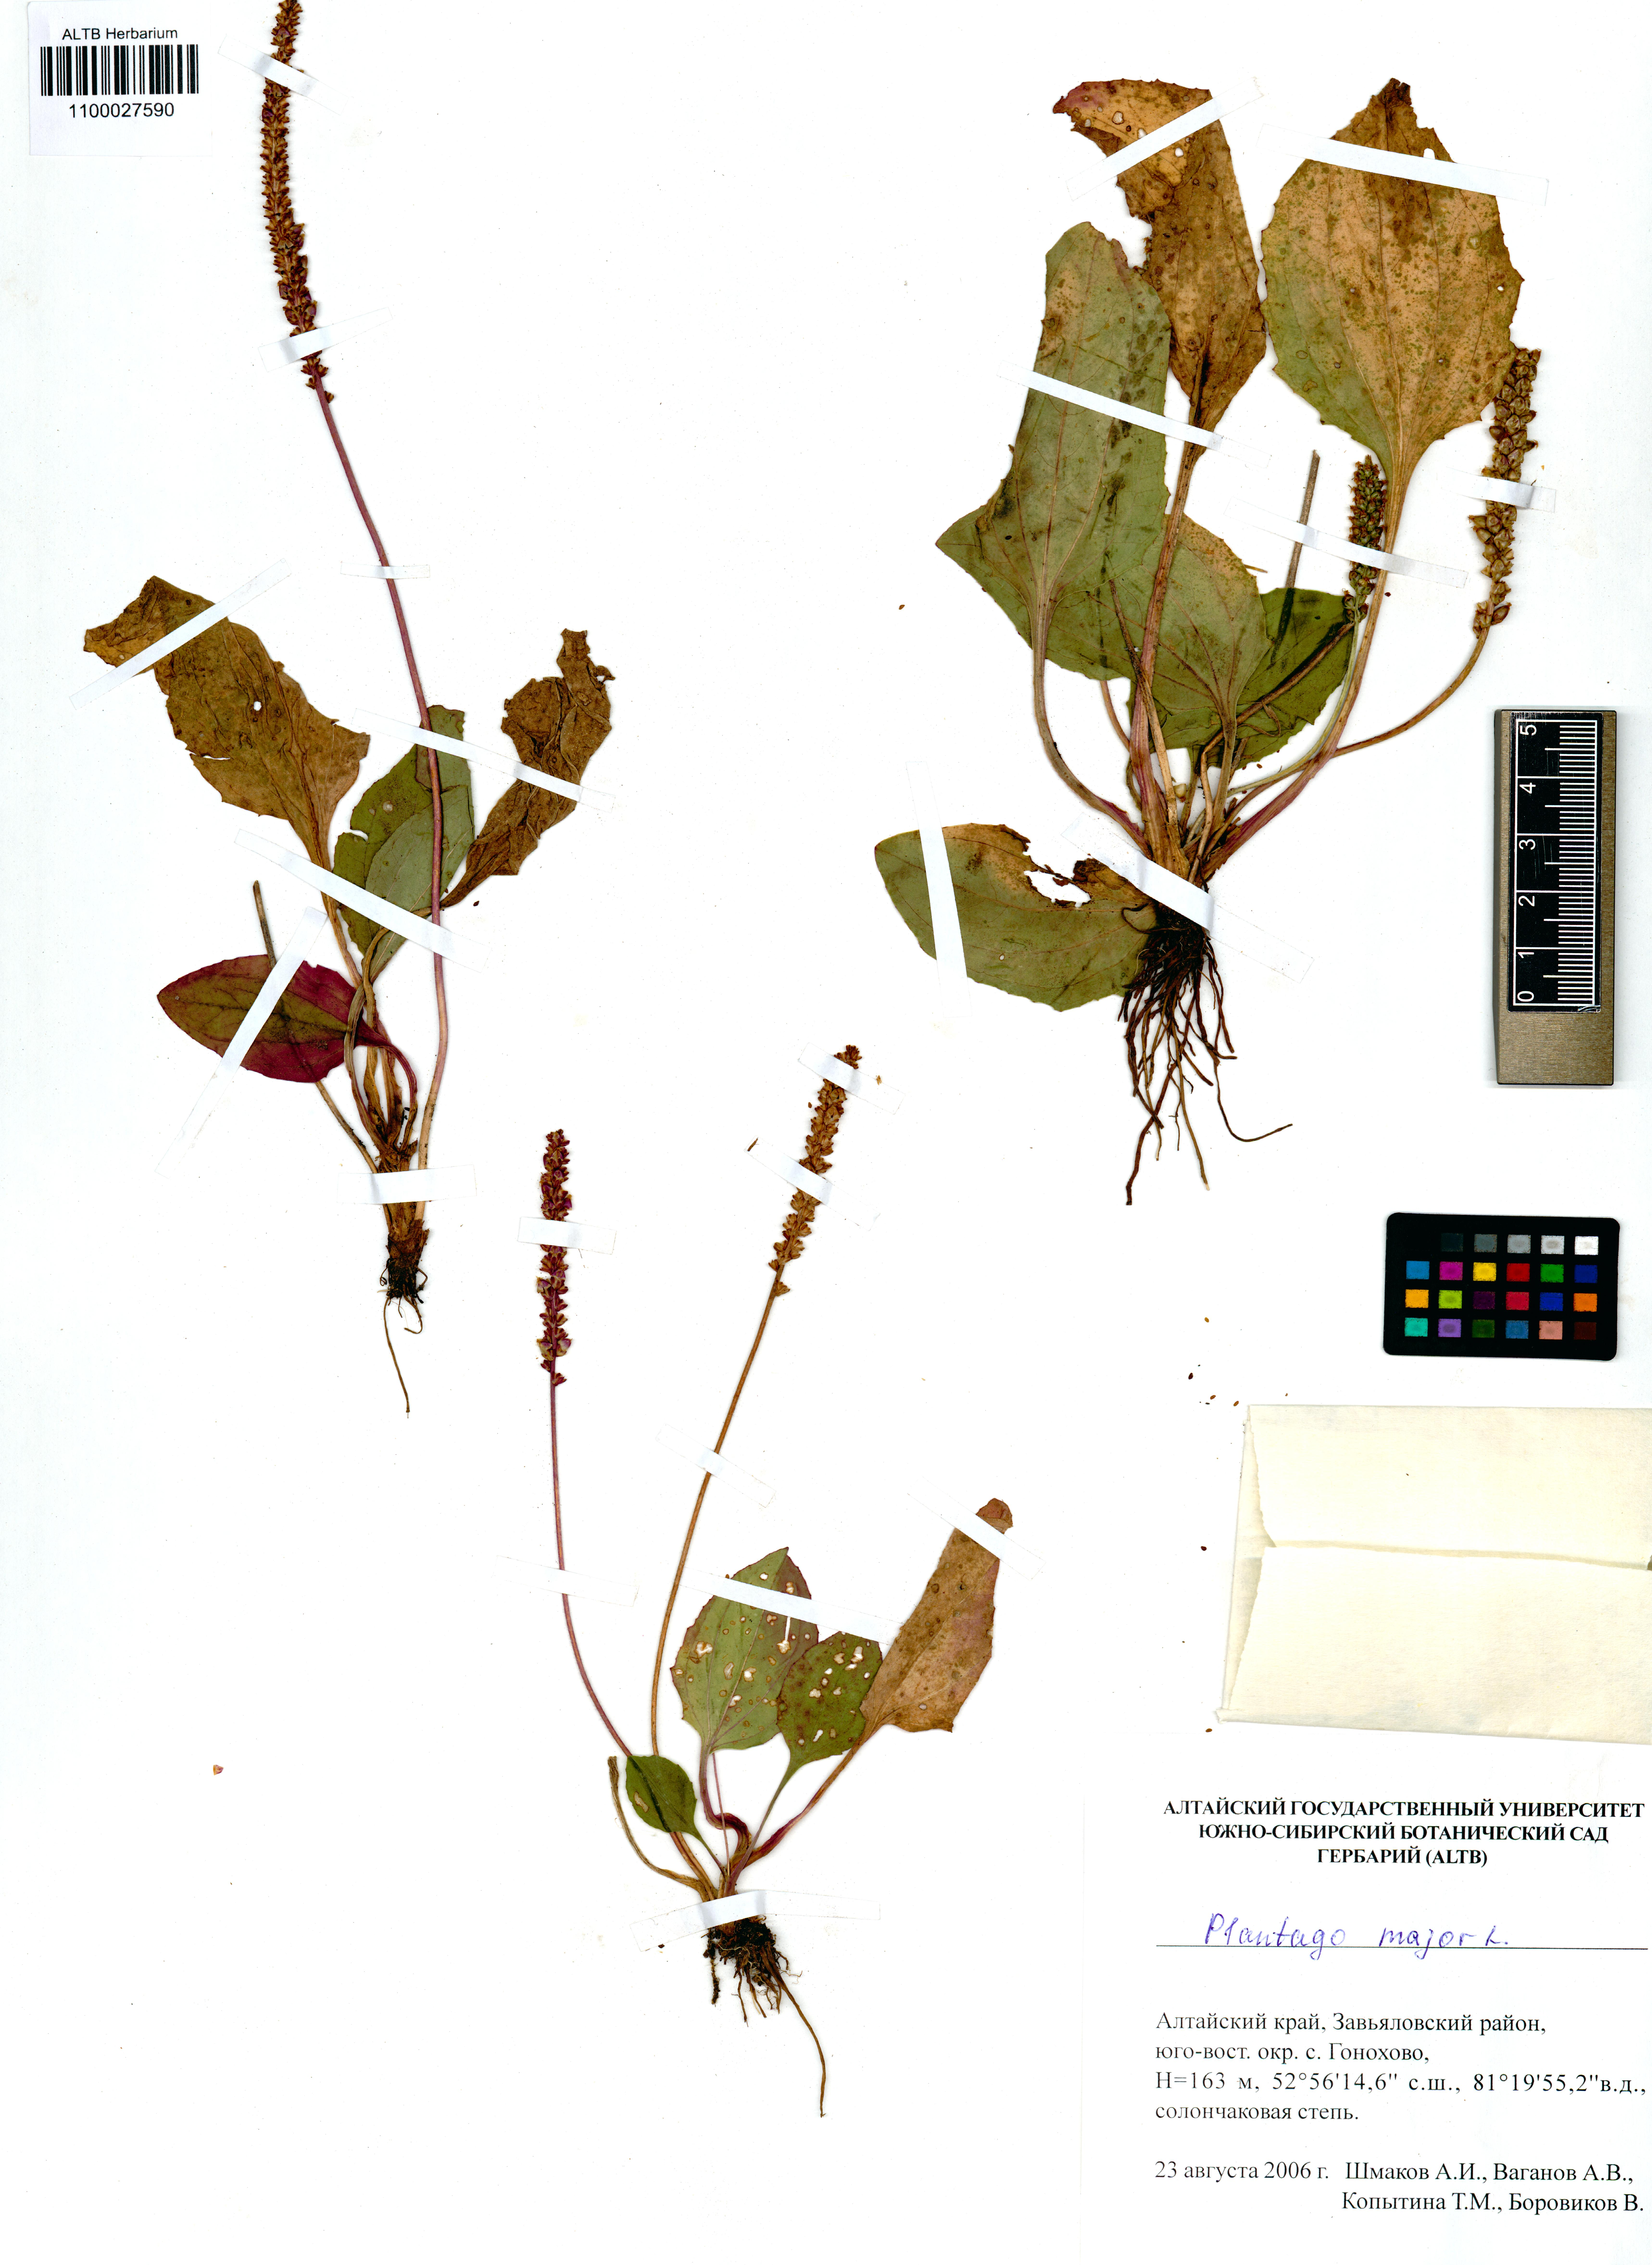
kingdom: Plantae
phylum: Tracheophyta
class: Magnoliopsida
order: Lamiales
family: Plantaginaceae
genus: Plantago
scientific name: Plantago major
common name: Common plantain
